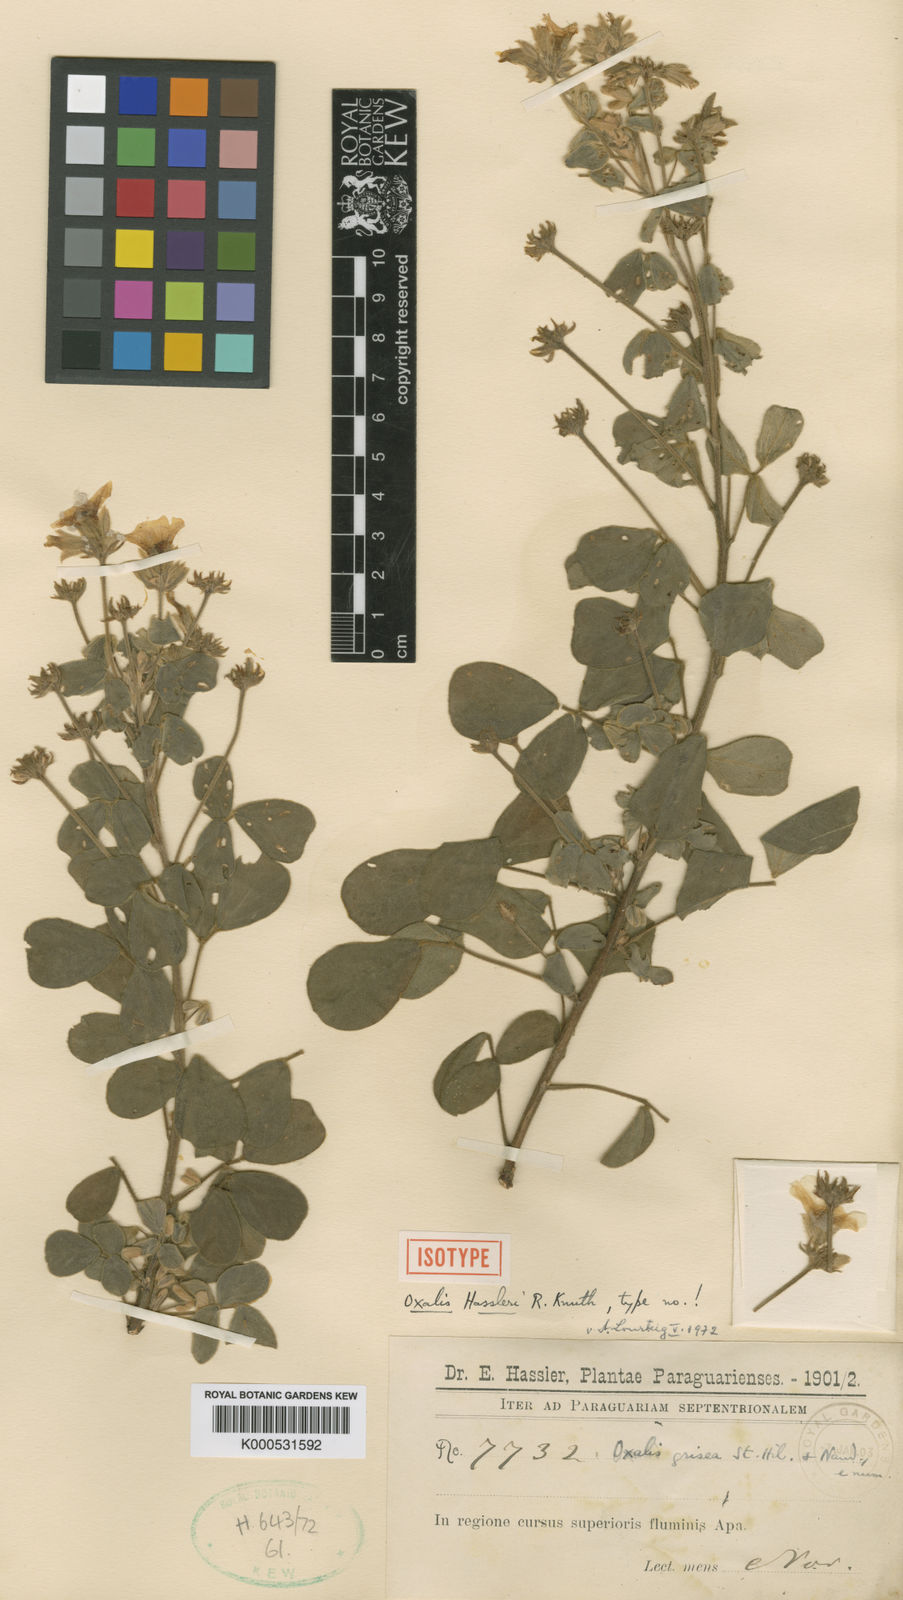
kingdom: Plantae
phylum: Tracheophyta
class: Magnoliopsida
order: Oxalidales
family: Oxalidaceae
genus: Oxalis
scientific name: Oxalis grisea
